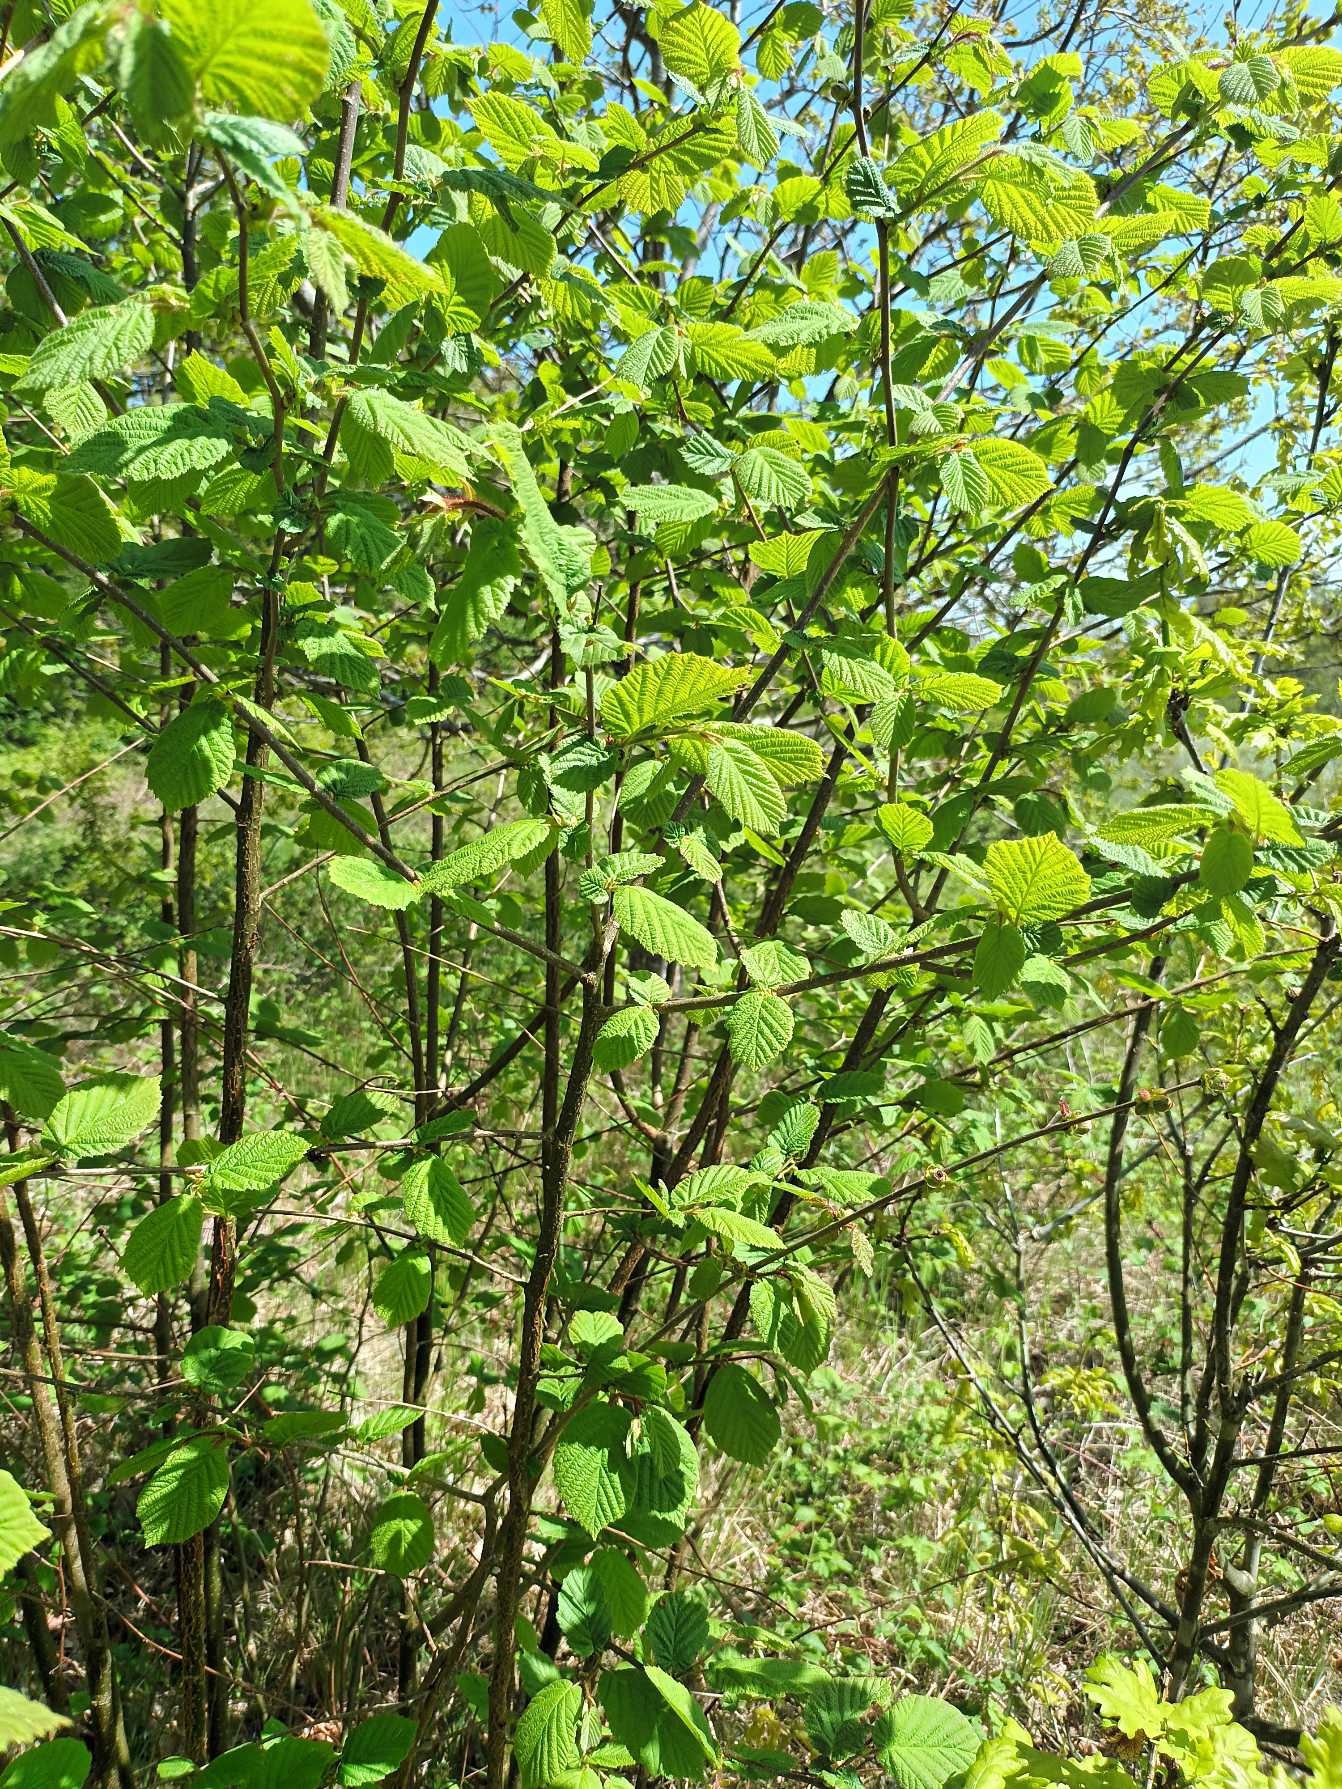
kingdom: Plantae
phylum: Tracheophyta
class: Magnoliopsida
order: Fagales
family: Betulaceae
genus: Corylus
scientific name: Corylus avellana
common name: Hassel
